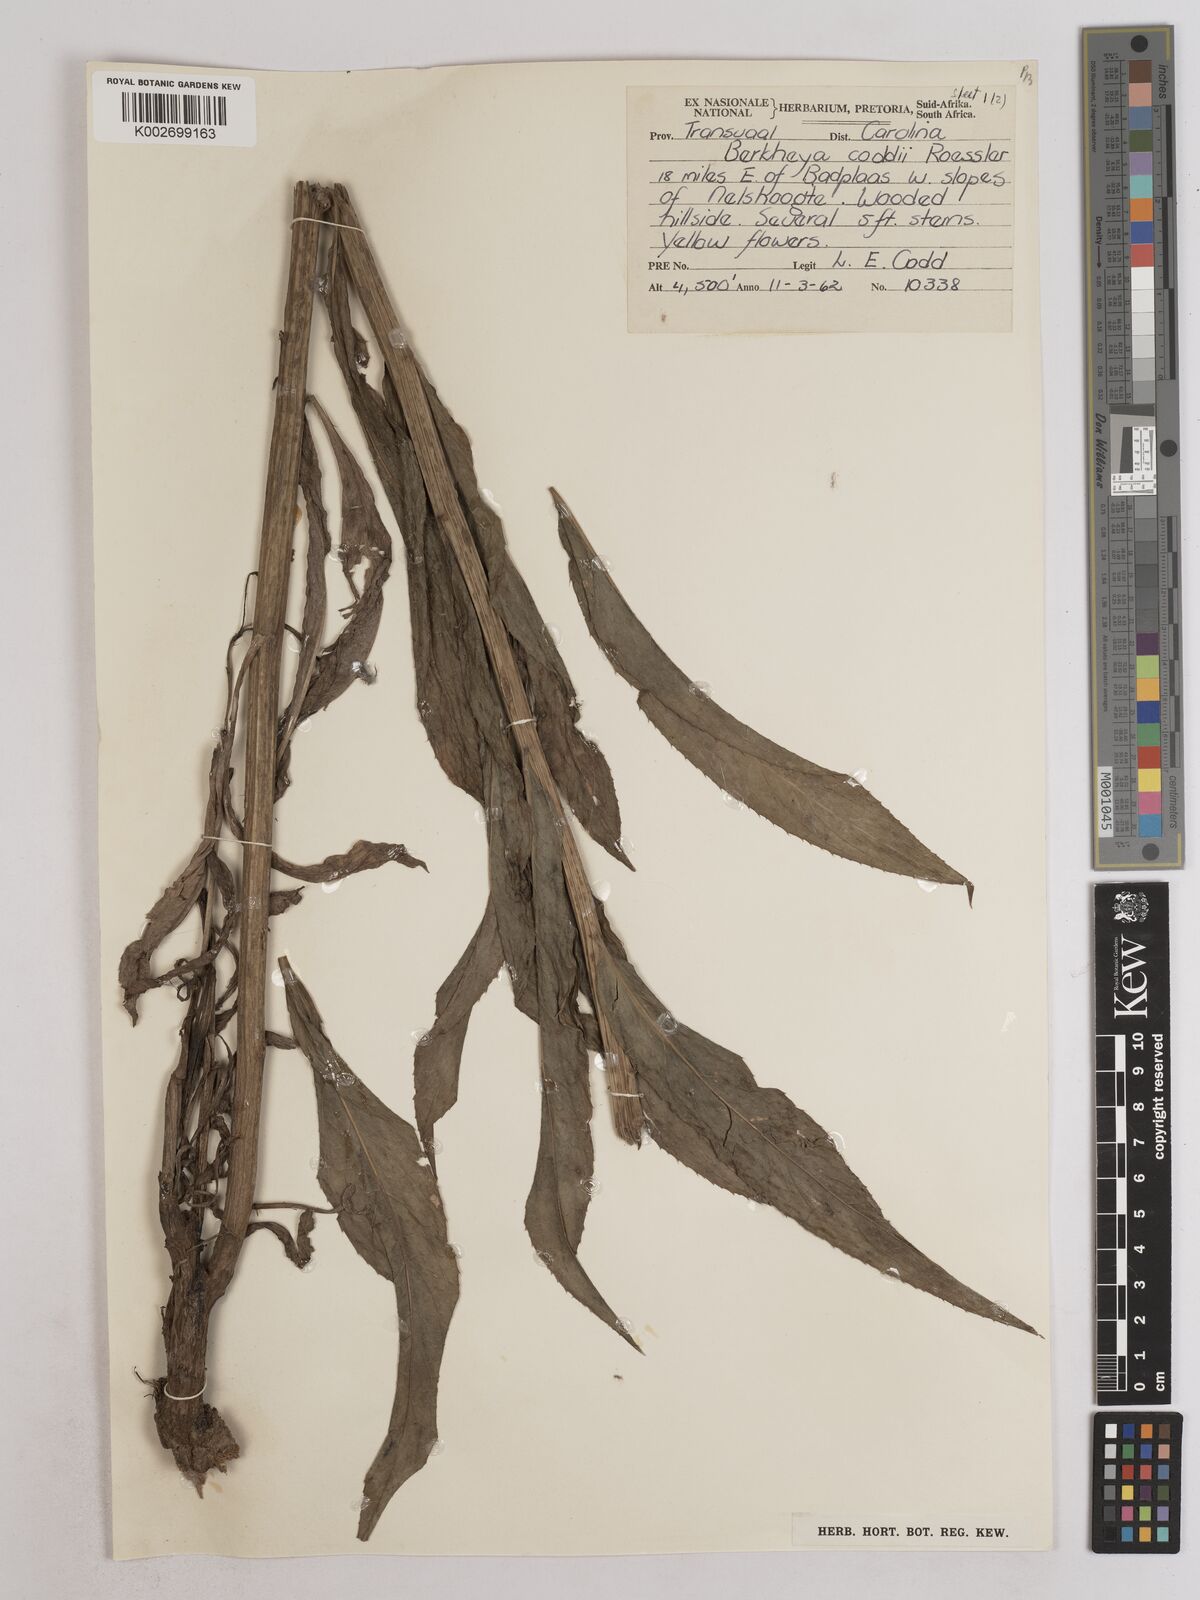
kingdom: Plantae
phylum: Tracheophyta
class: Magnoliopsida
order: Asterales
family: Asteraceae
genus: Berkheya
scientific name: Berkheya coddii
